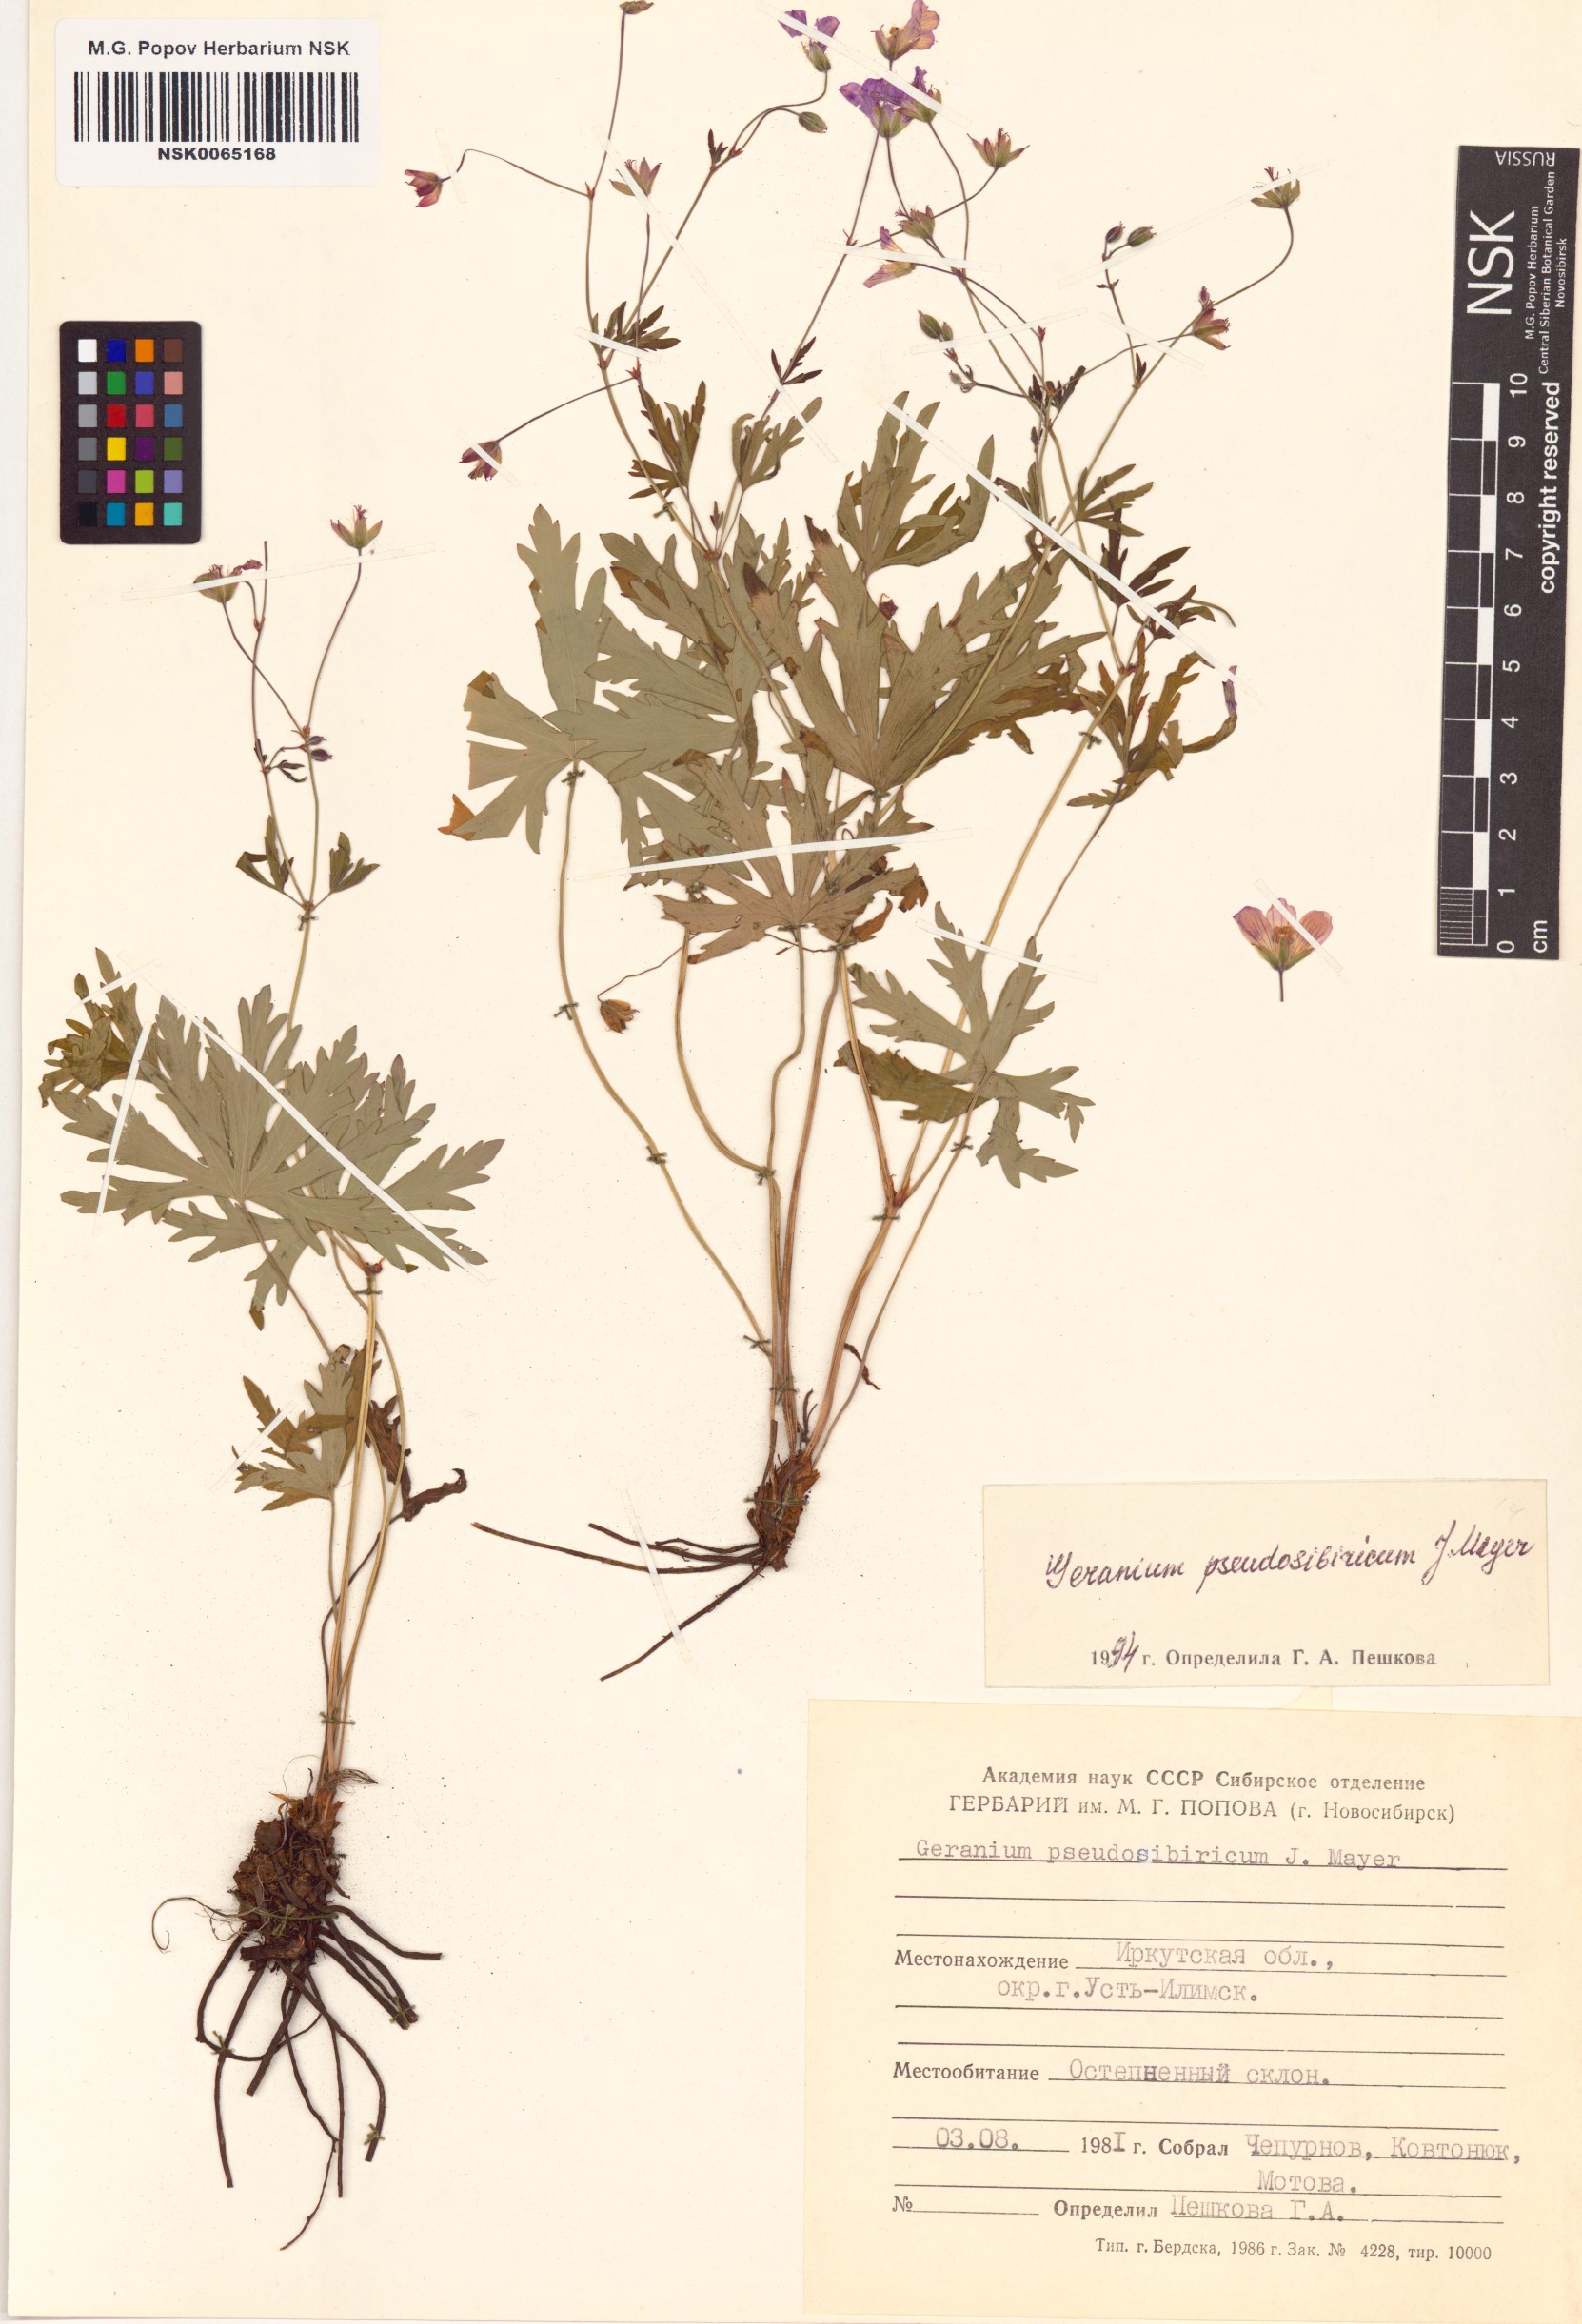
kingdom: Plantae
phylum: Tracheophyta
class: Magnoliopsida
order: Geraniales
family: Geraniaceae
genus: Geranium
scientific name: Geranium pseudosibiricum
